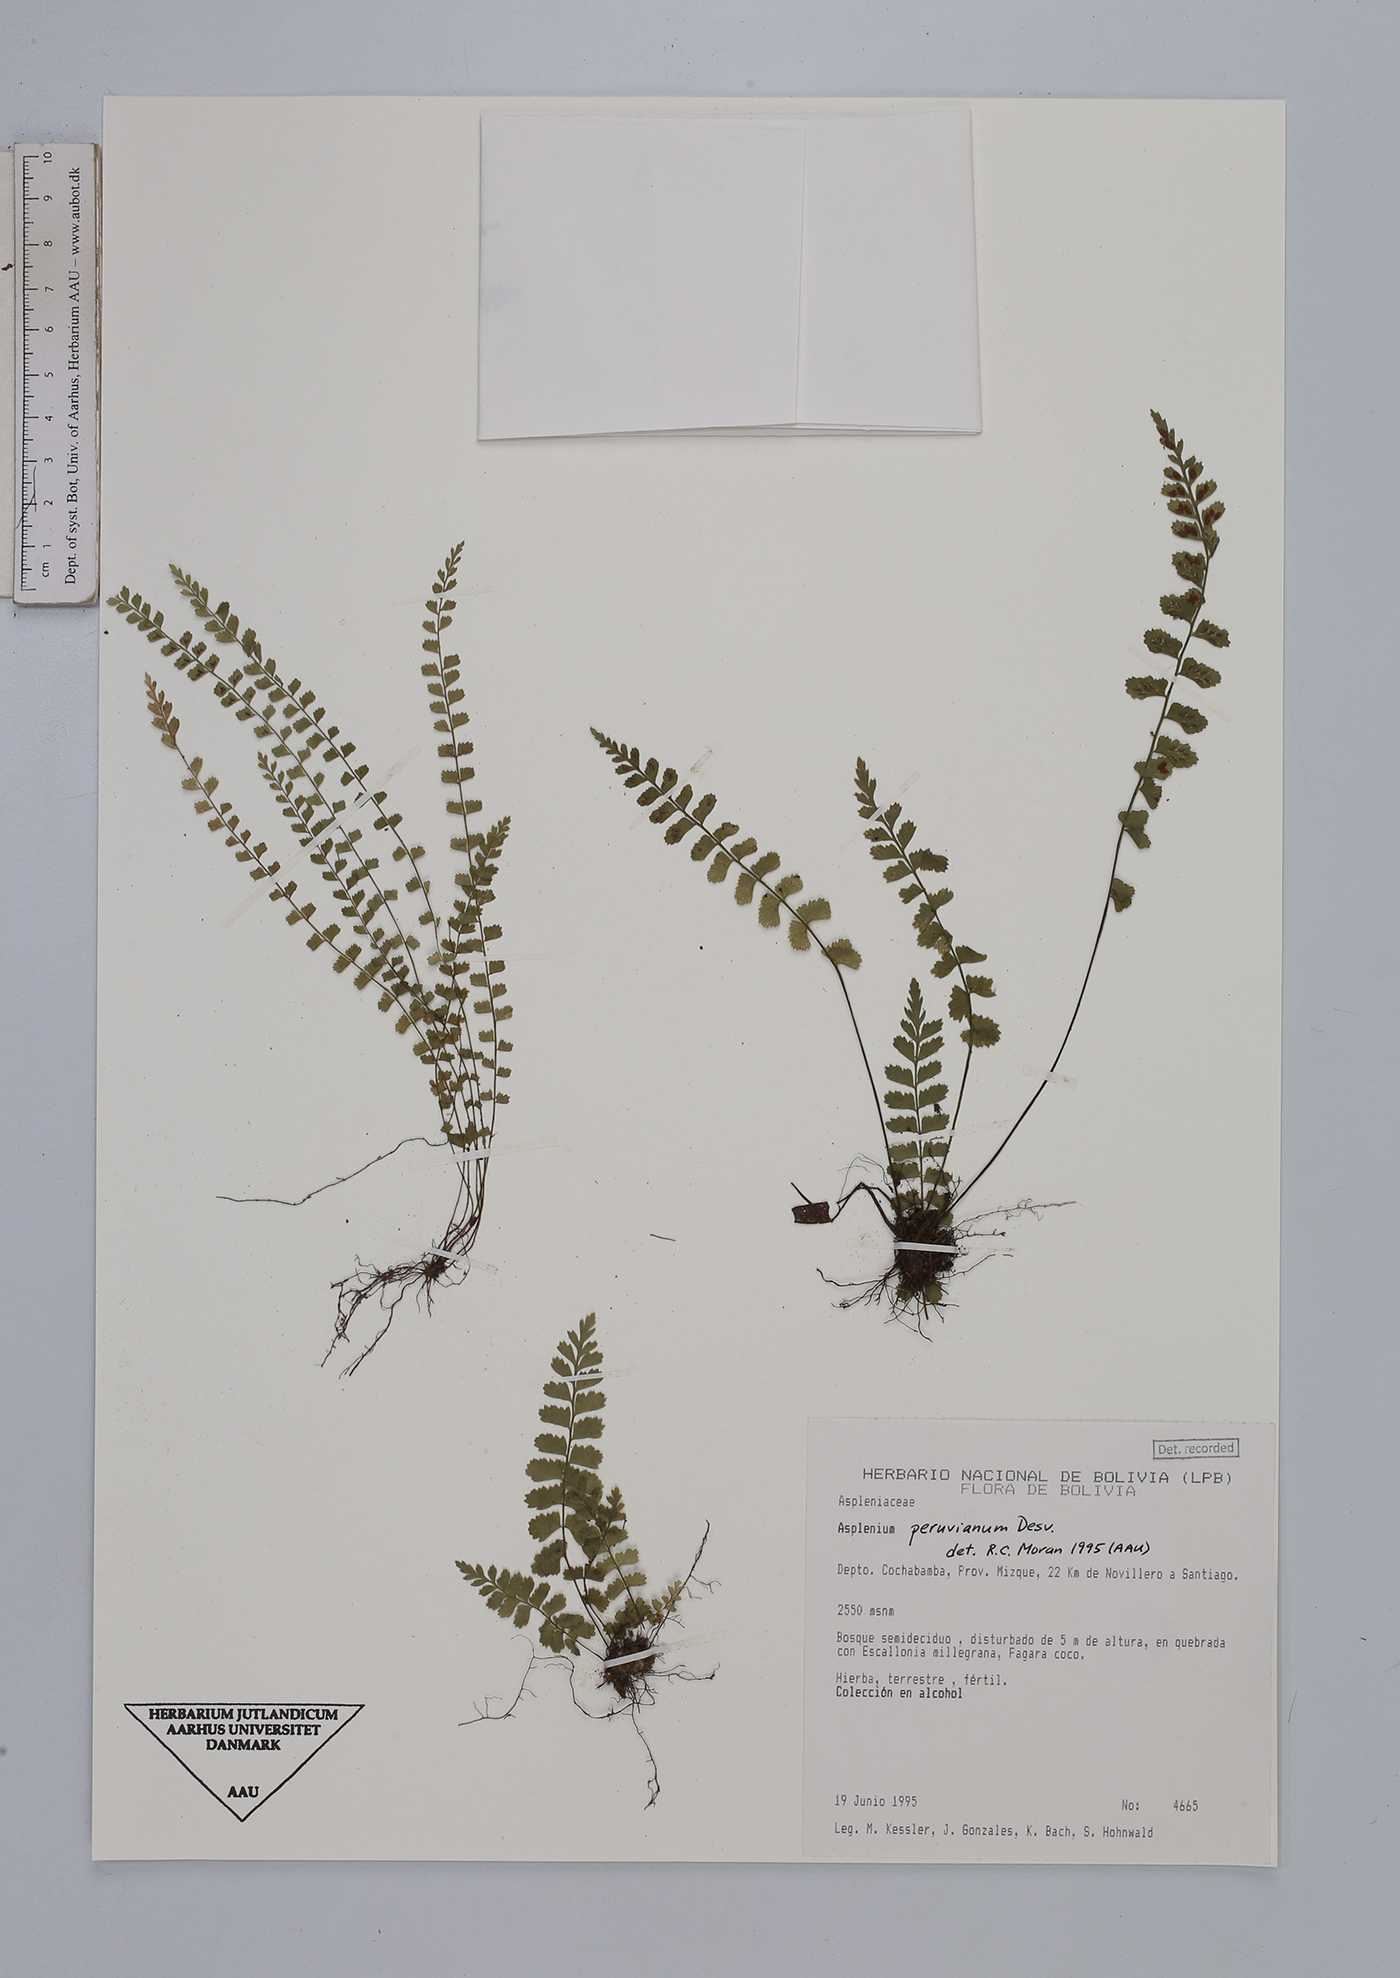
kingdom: Plantae
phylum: Tracheophyta
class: Polypodiopsida
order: Polypodiales
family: Aspleniaceae
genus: Asplenium
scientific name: Asplenium peruvianum
